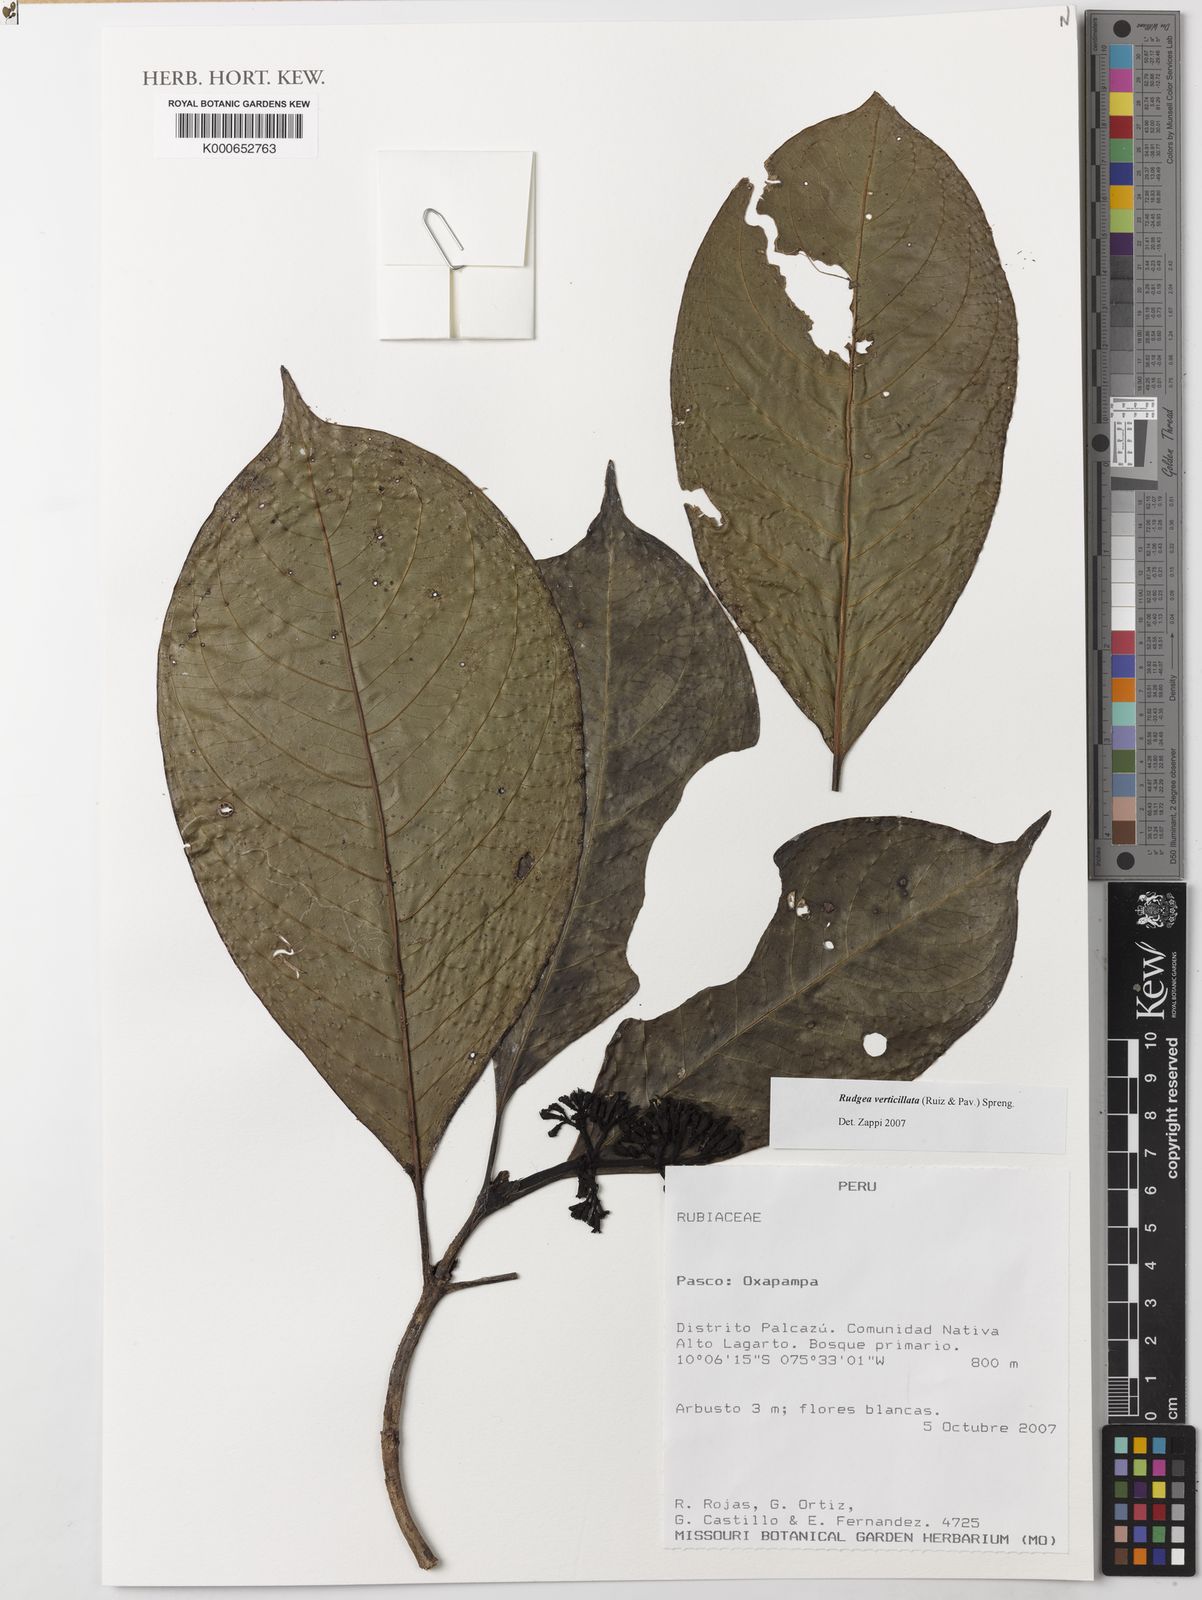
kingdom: Plantae
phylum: Tracheophyta
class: Magnoliopsida
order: Gentianales
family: Rubiaceae
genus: Rudgea
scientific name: Rudgea verticillata
